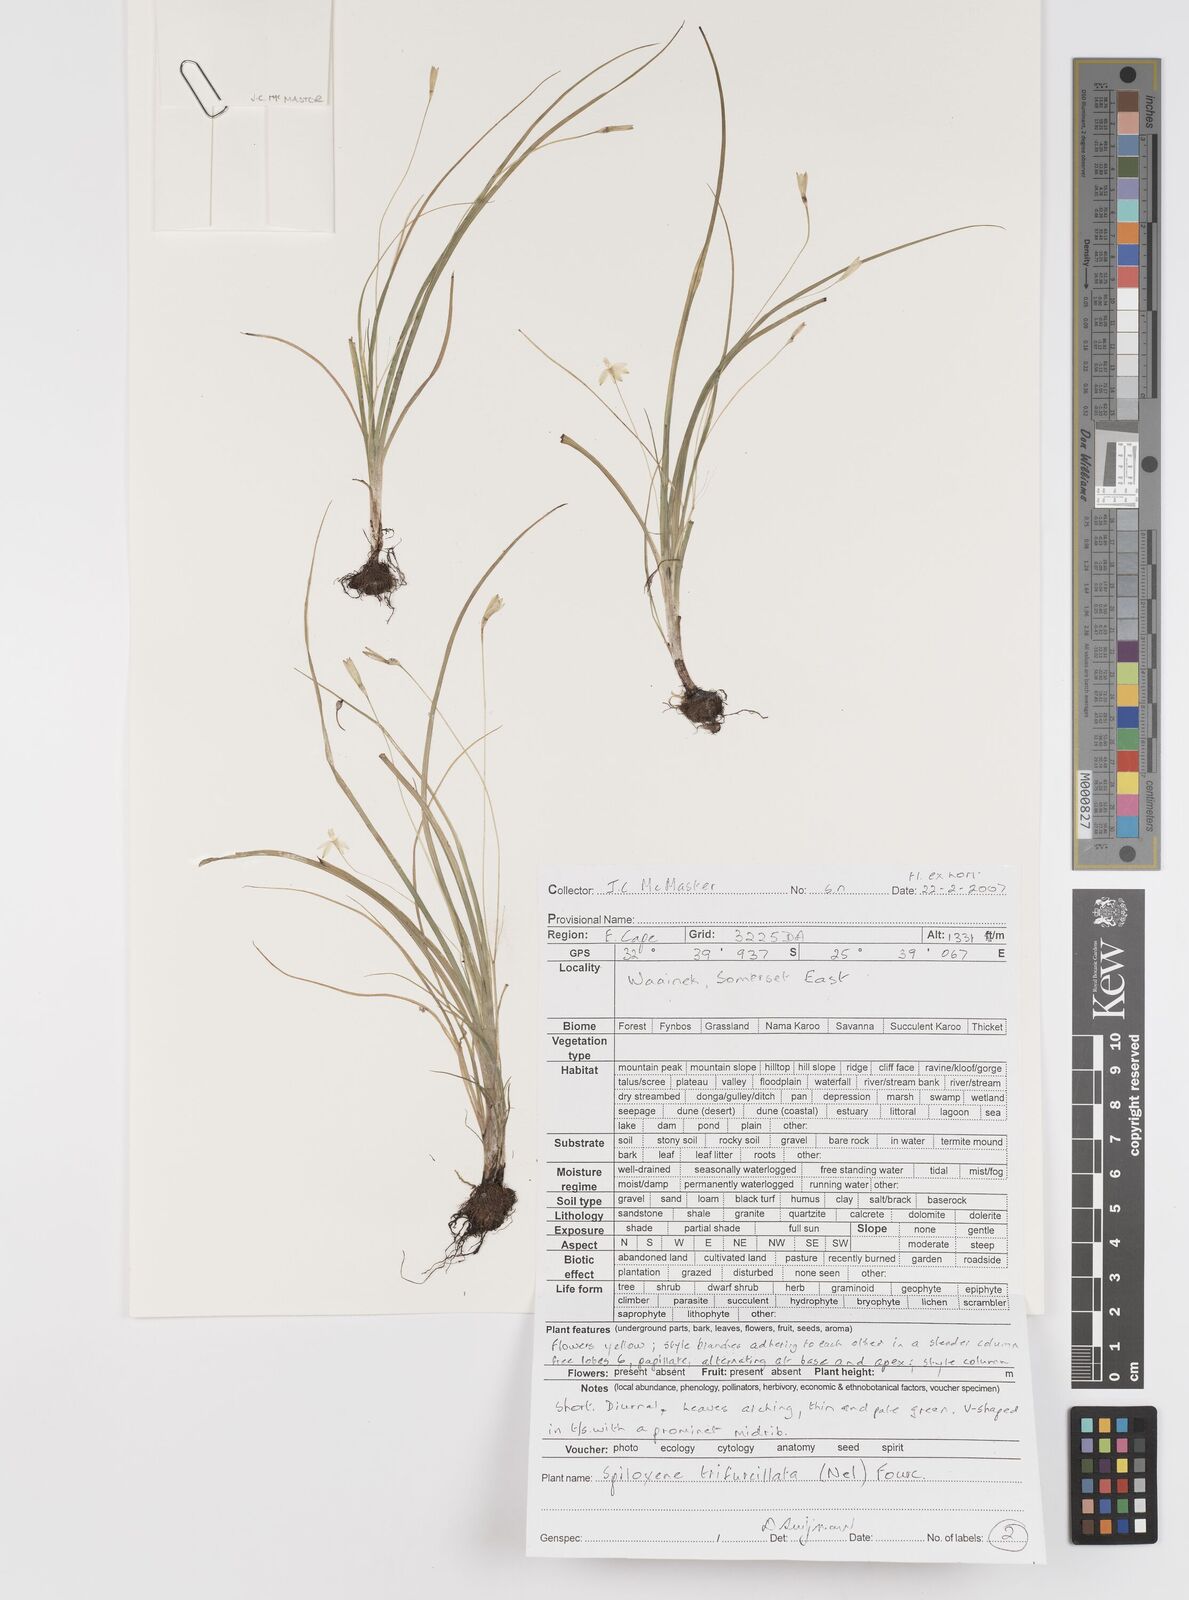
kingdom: Plantae
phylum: Tracheophyta
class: Liliopsida
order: Asparagales
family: Hypoxidaceae
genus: Pauridia
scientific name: Pauridia trifurcillata
